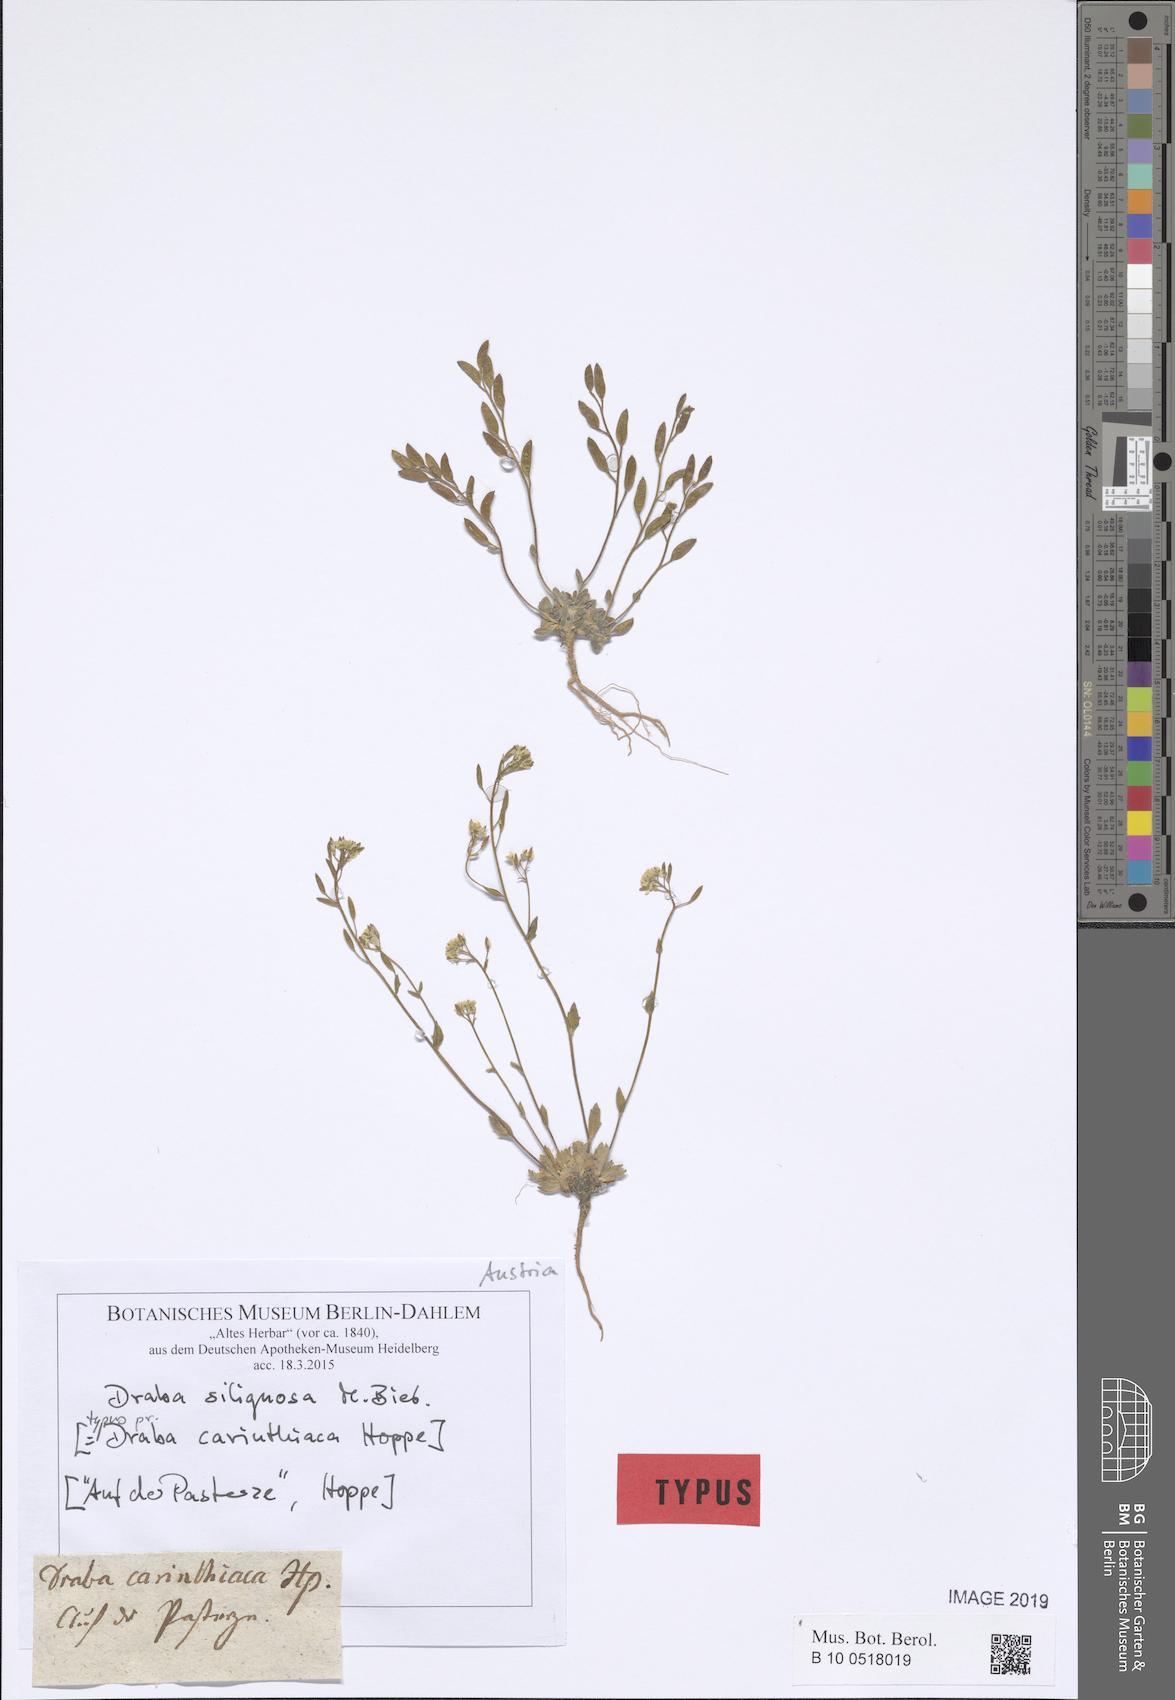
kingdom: Plantae
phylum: Tracheophyta
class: Magnoliopsida
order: Brassicales
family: Brassicaceae
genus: Draba
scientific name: Draba siliquosa
